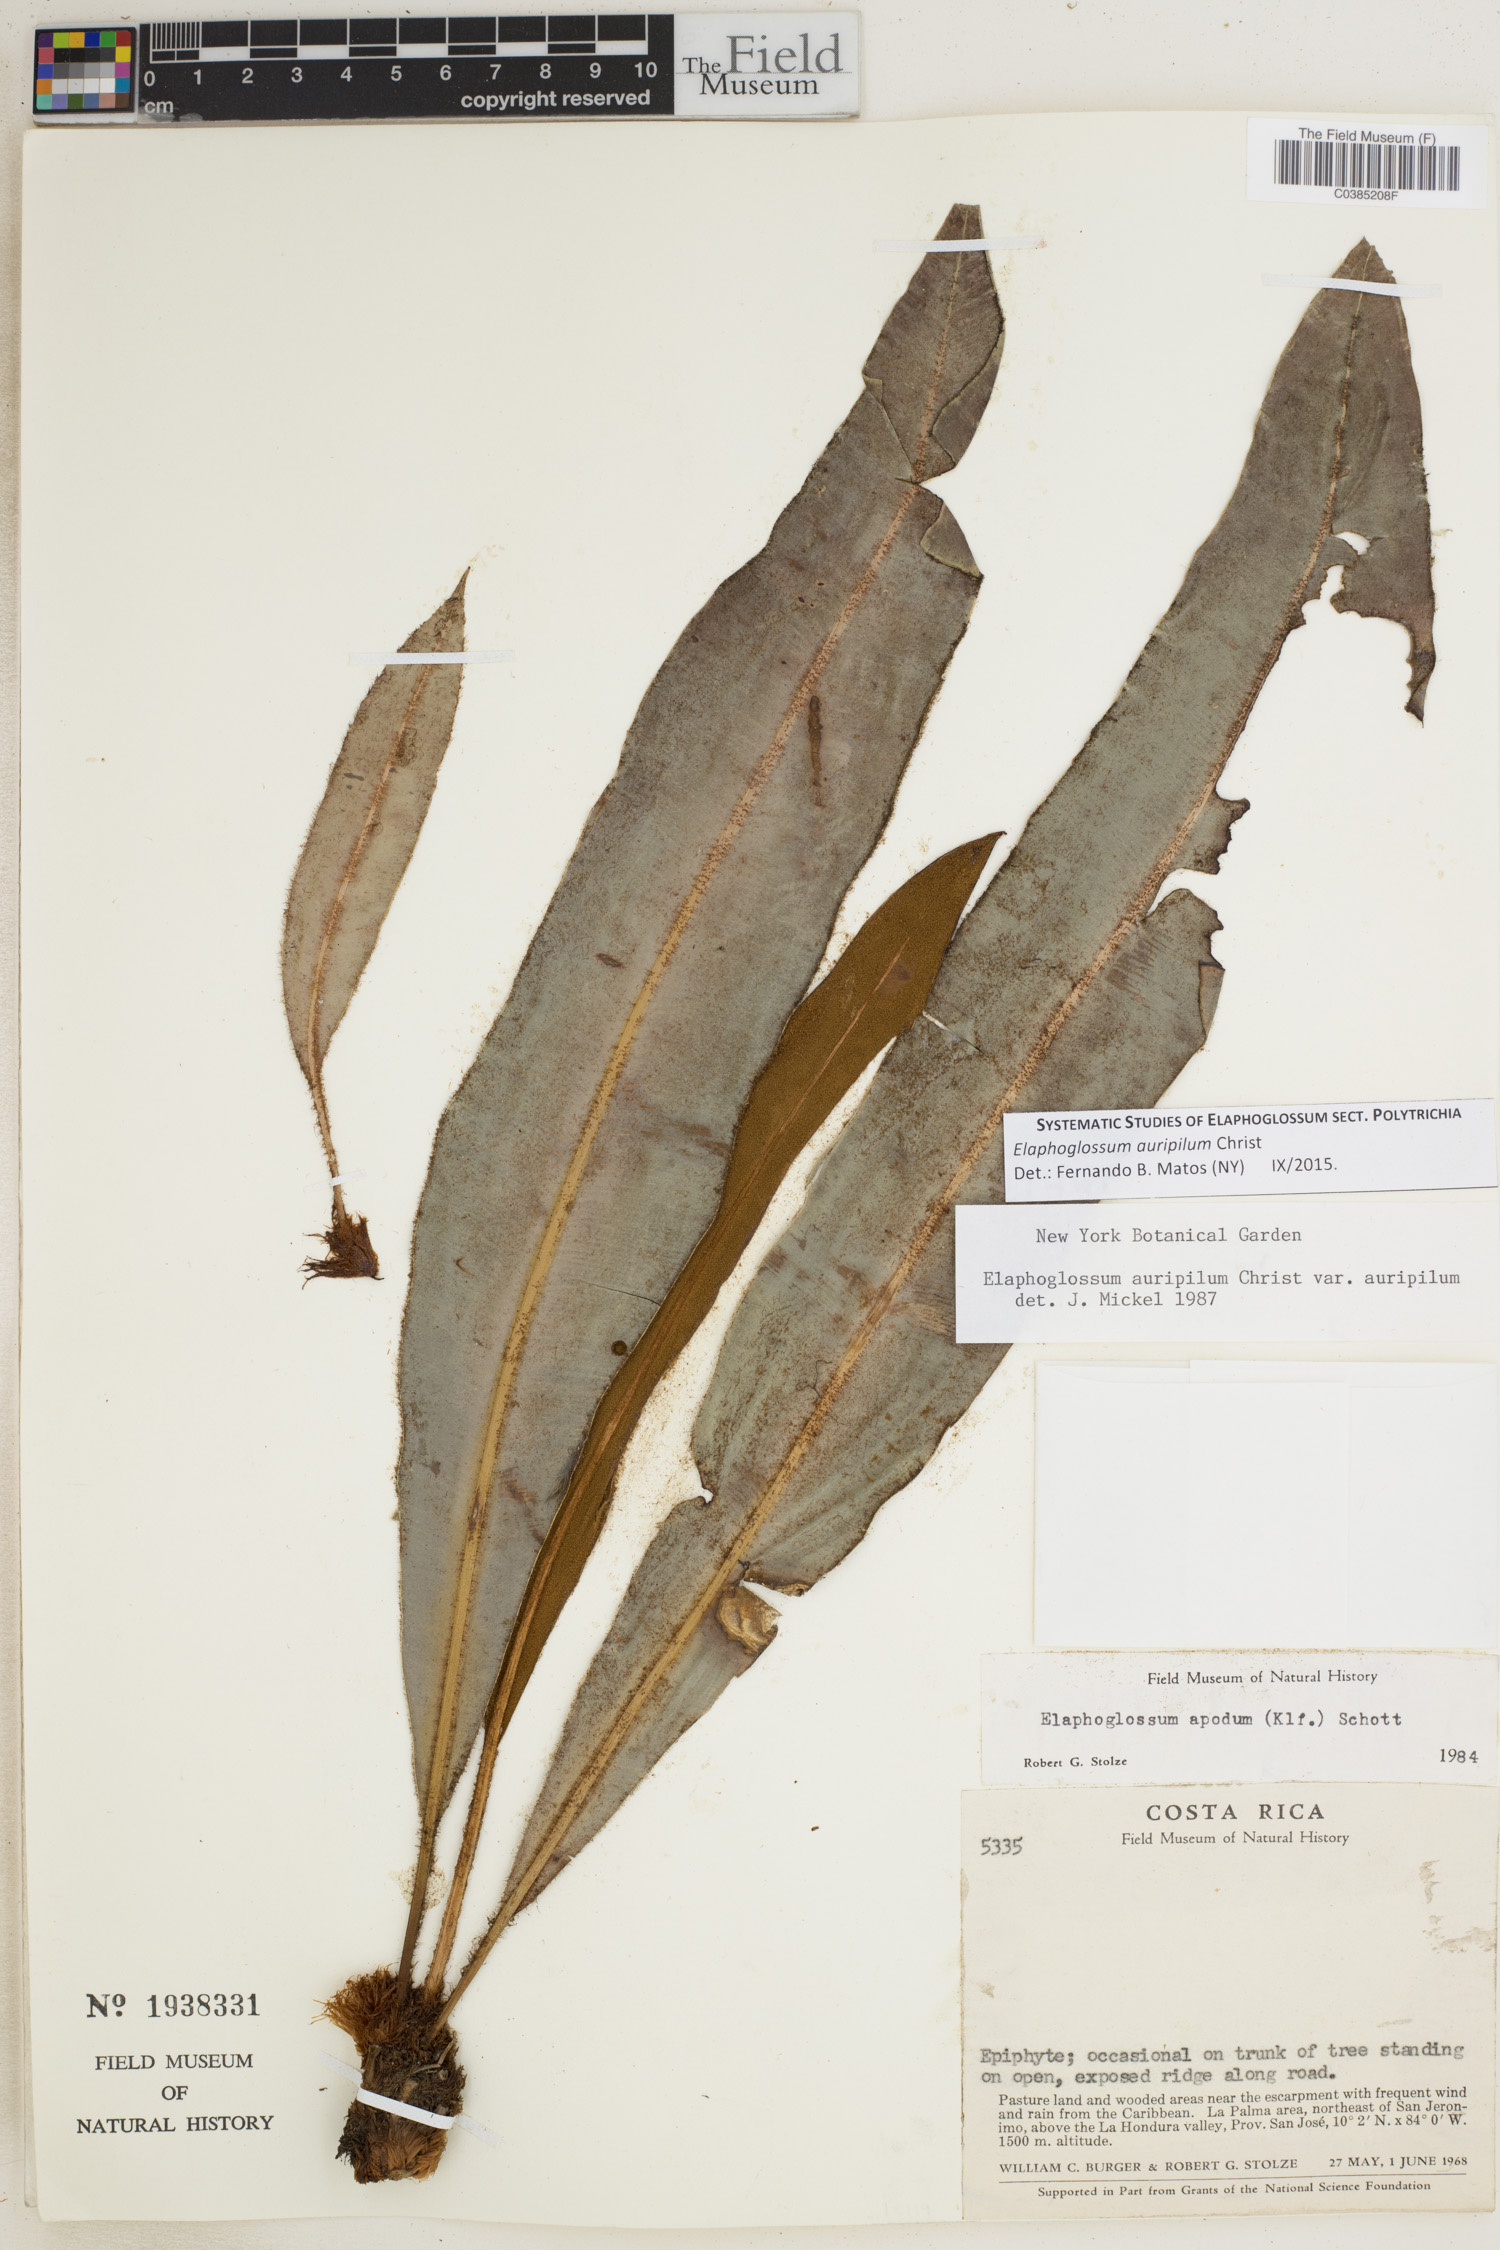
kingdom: Plantae
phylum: Tracheophyta
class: Polypodiopsida
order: Polypodiales
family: Dryopteridaceae
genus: Elaphoglossum
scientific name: Elaphoglossum auripilum
